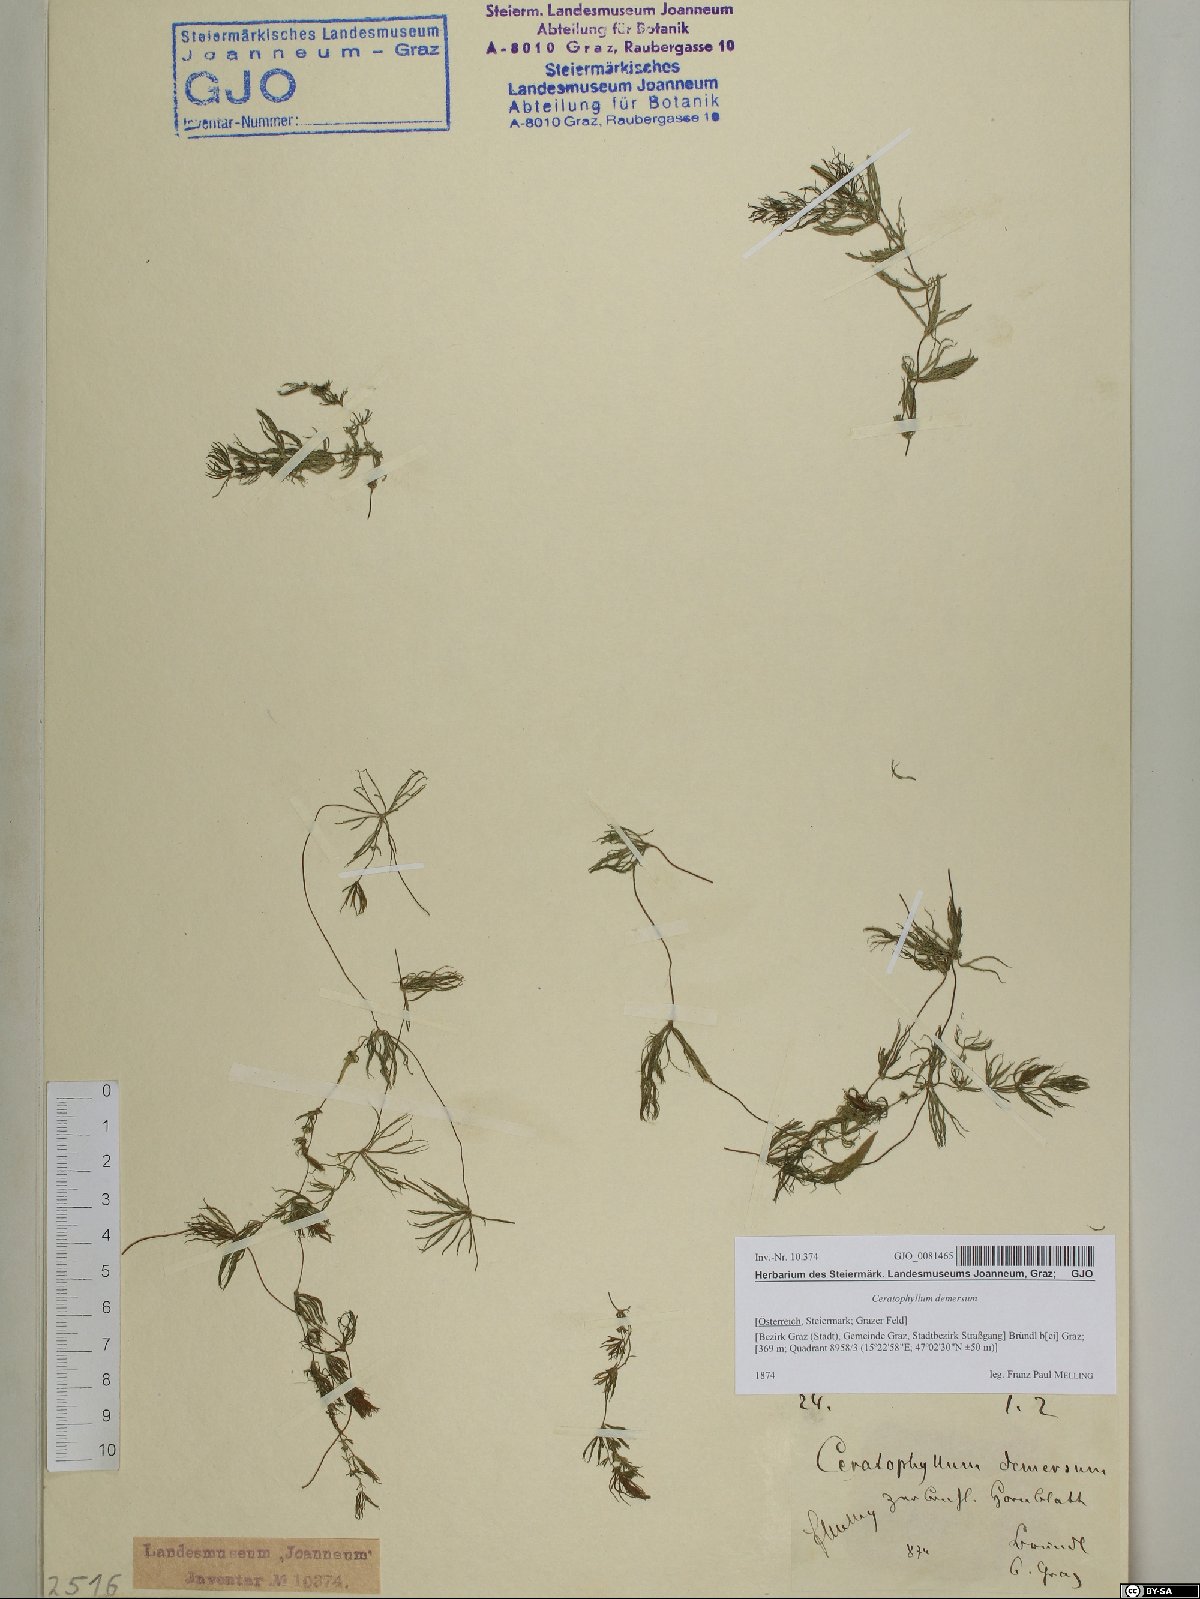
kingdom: Plantae
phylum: Tracheophyta
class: Magnoliopsida
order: Ceratophyllales
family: Ceratophyllaceae
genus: Ceratophyllum
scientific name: Ceratophyllum demersum
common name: Rigid hornwort
